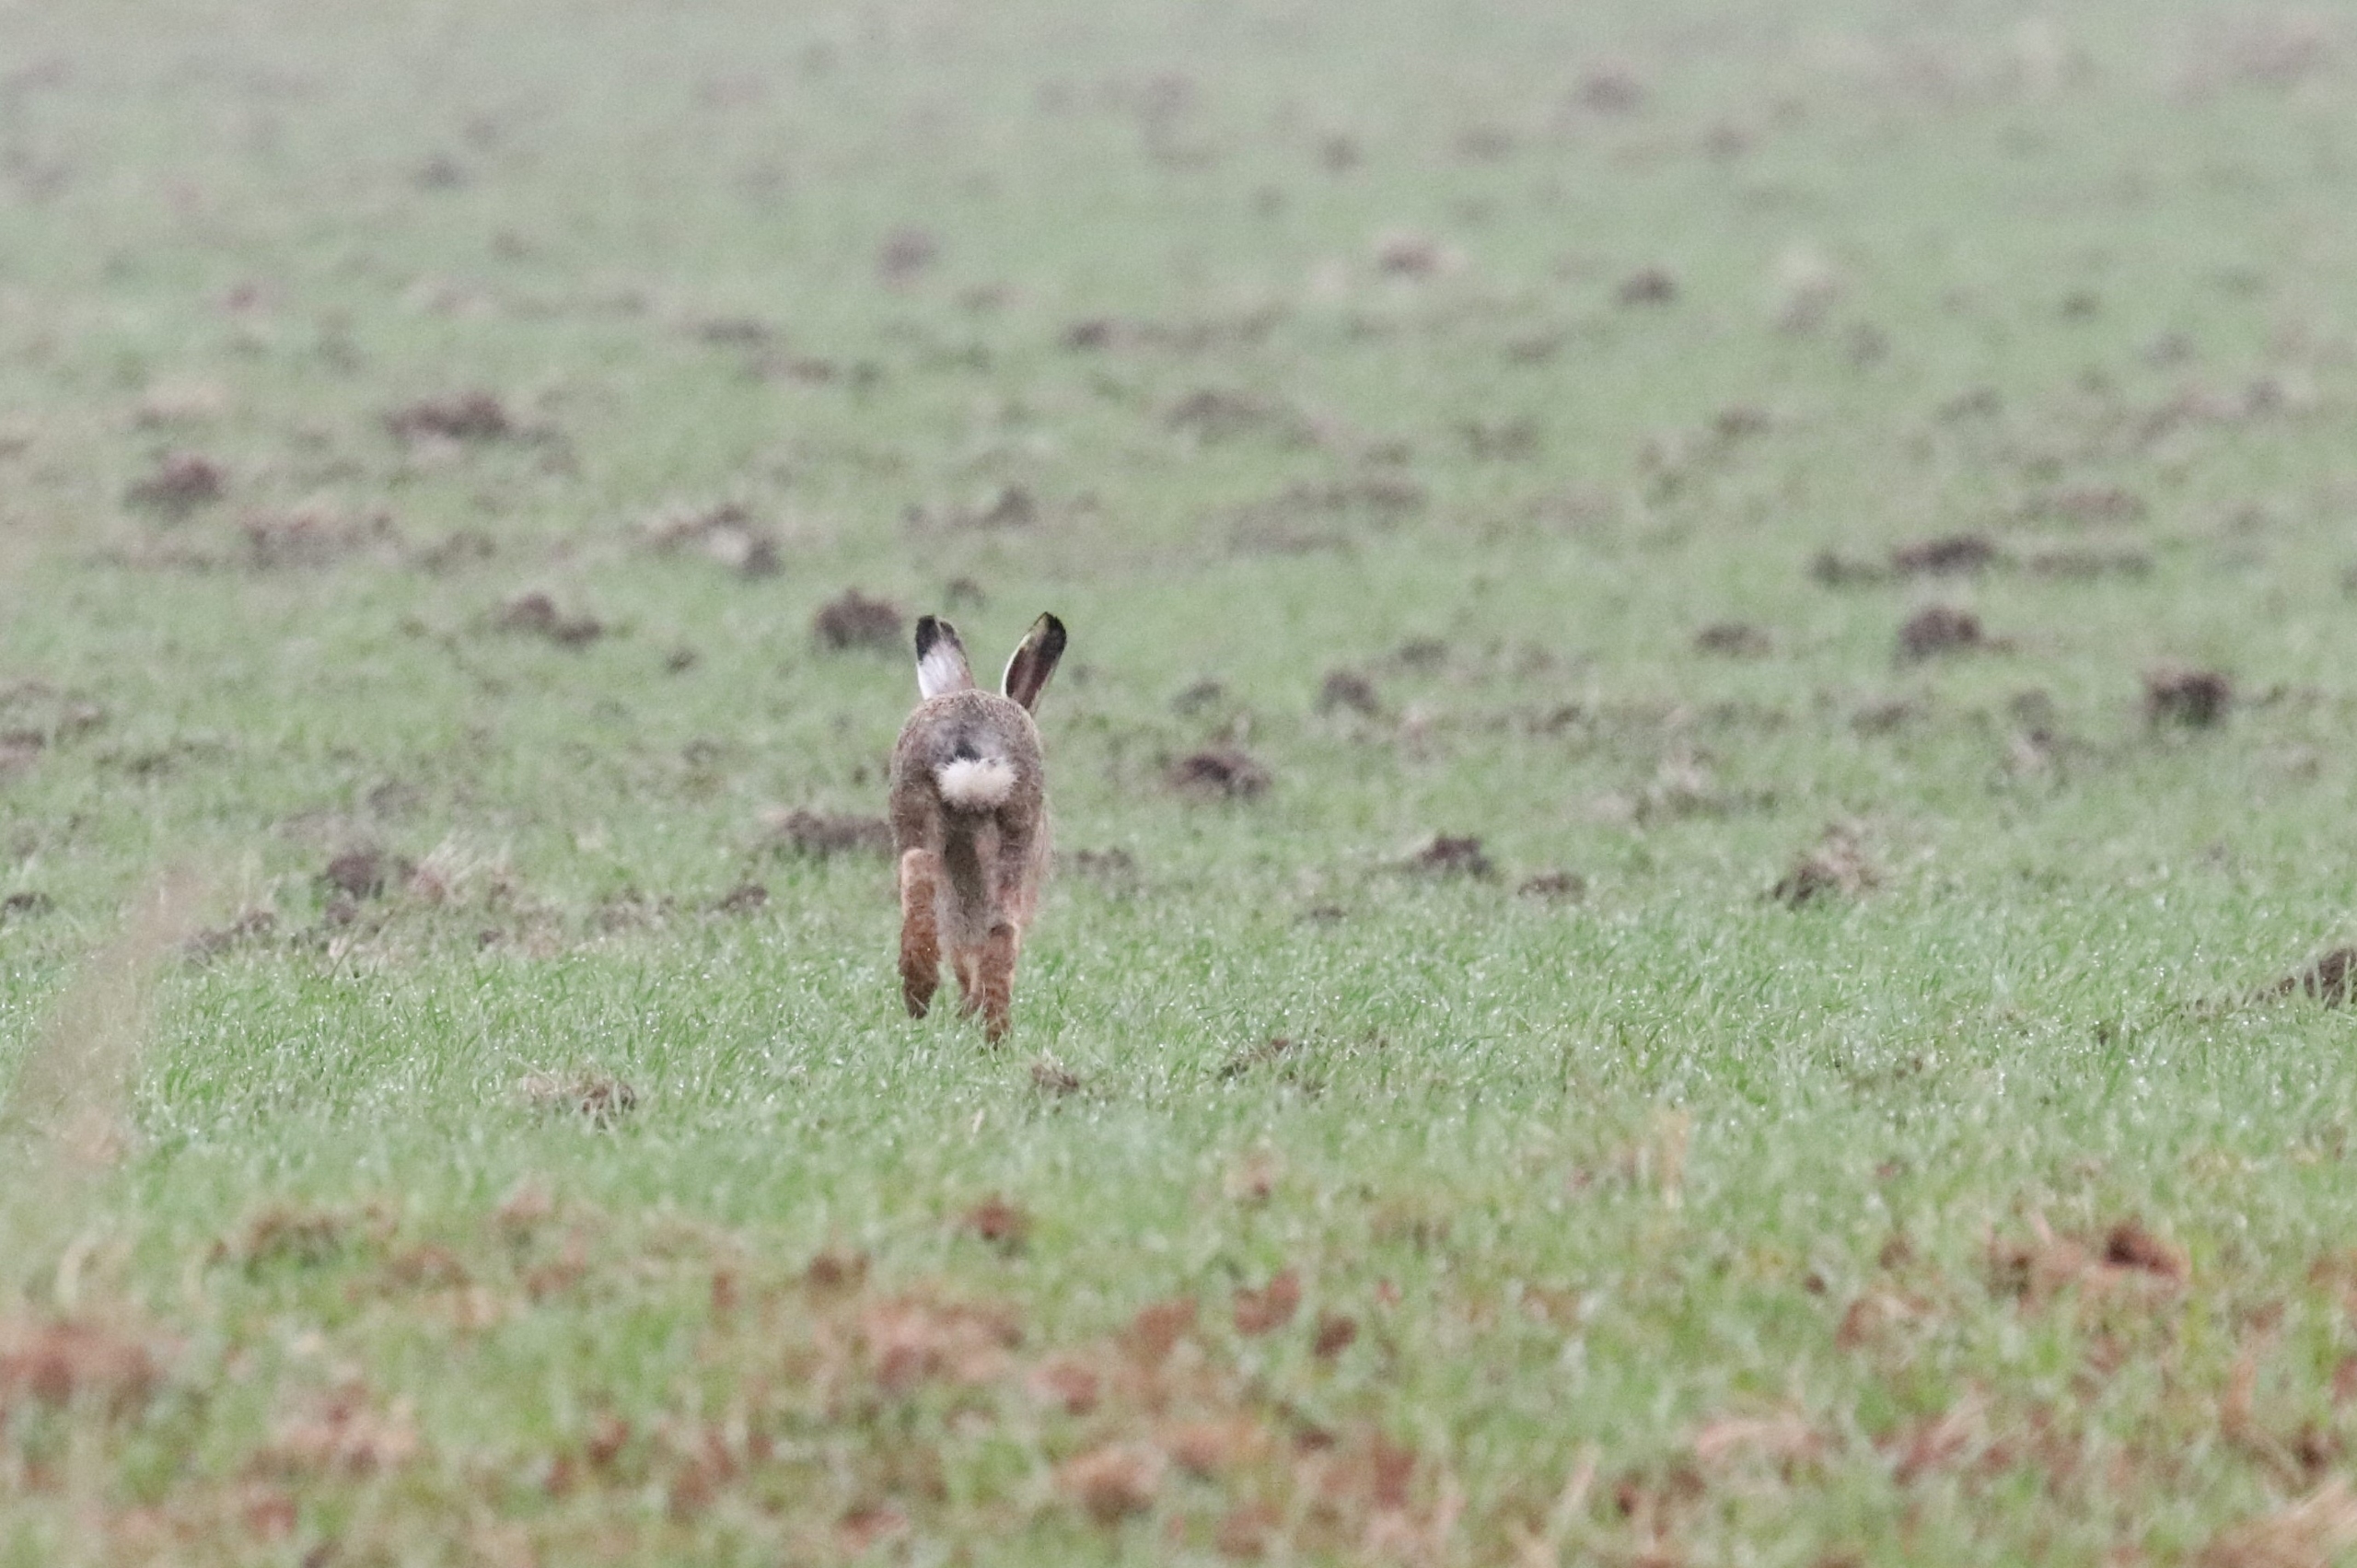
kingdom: Animalia
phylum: Chordata
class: Mammalia
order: Lagomorpha
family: Leporidae
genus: Lepus
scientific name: Lepus europaeus
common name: Hare
